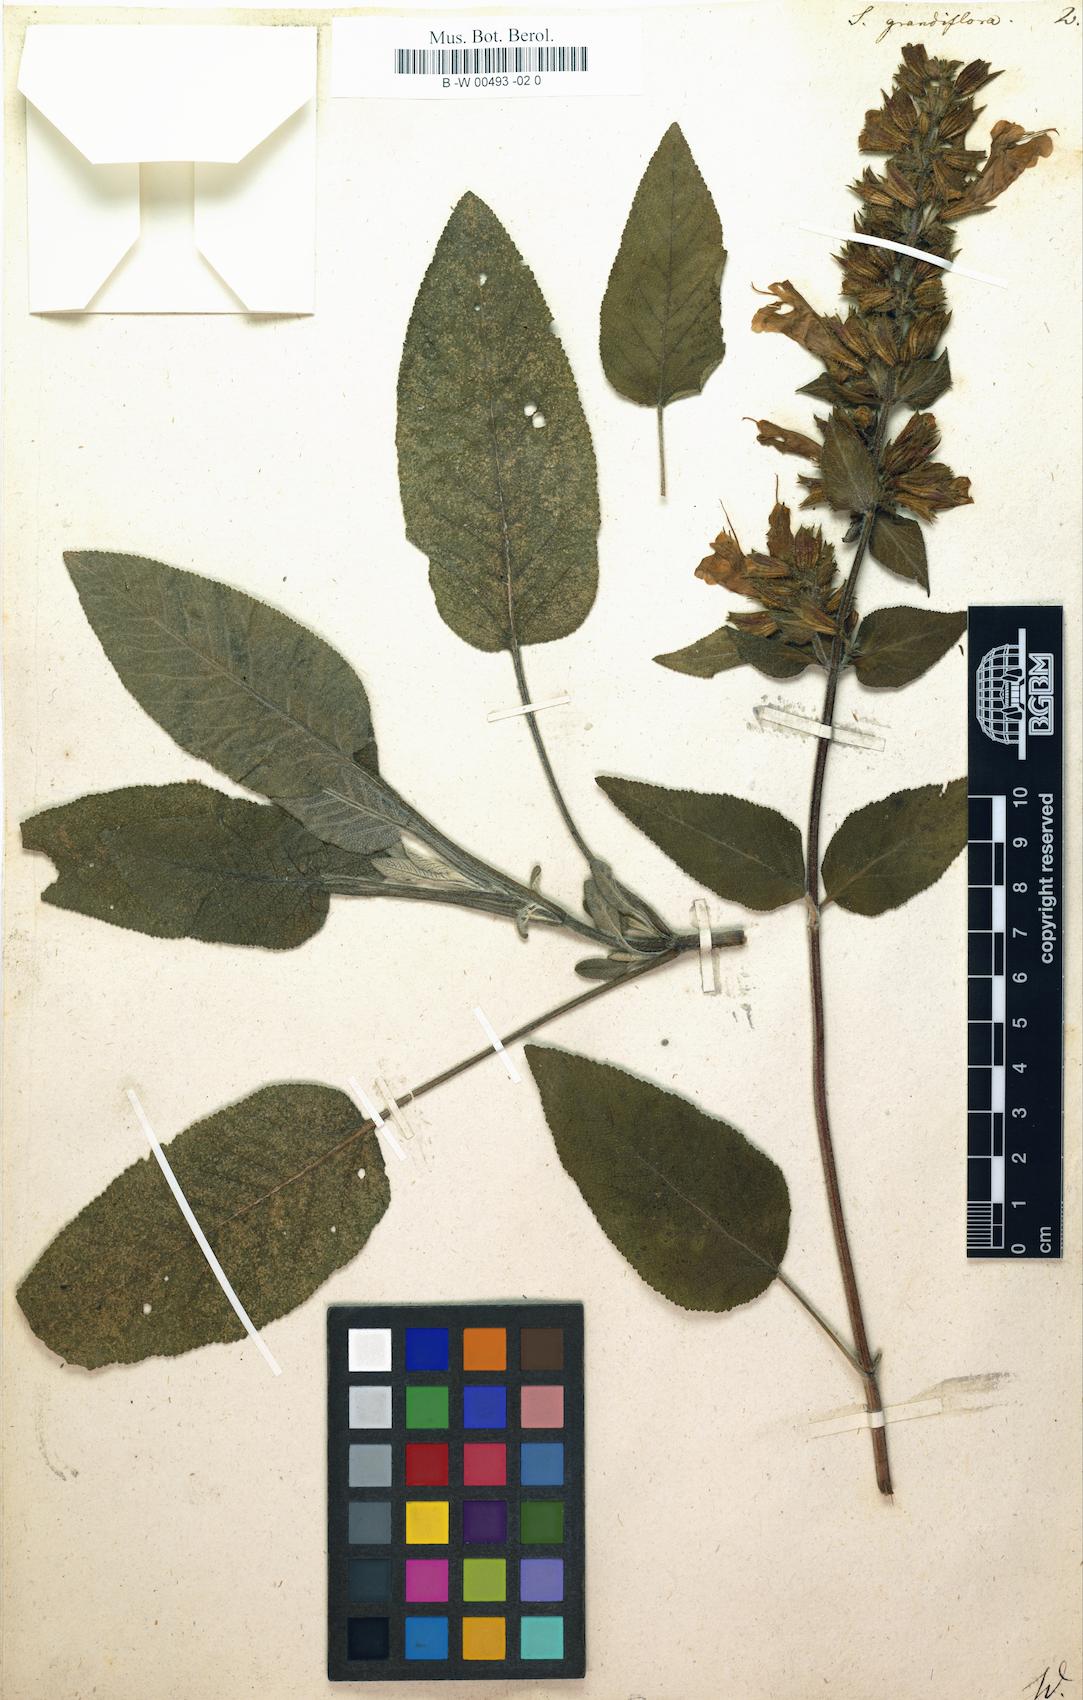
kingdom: Plantae
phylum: Tracheophyta
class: Magnoliopsida
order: Lamiales
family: Lamiaceae
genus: Salvia
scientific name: Salvia grandiflora
